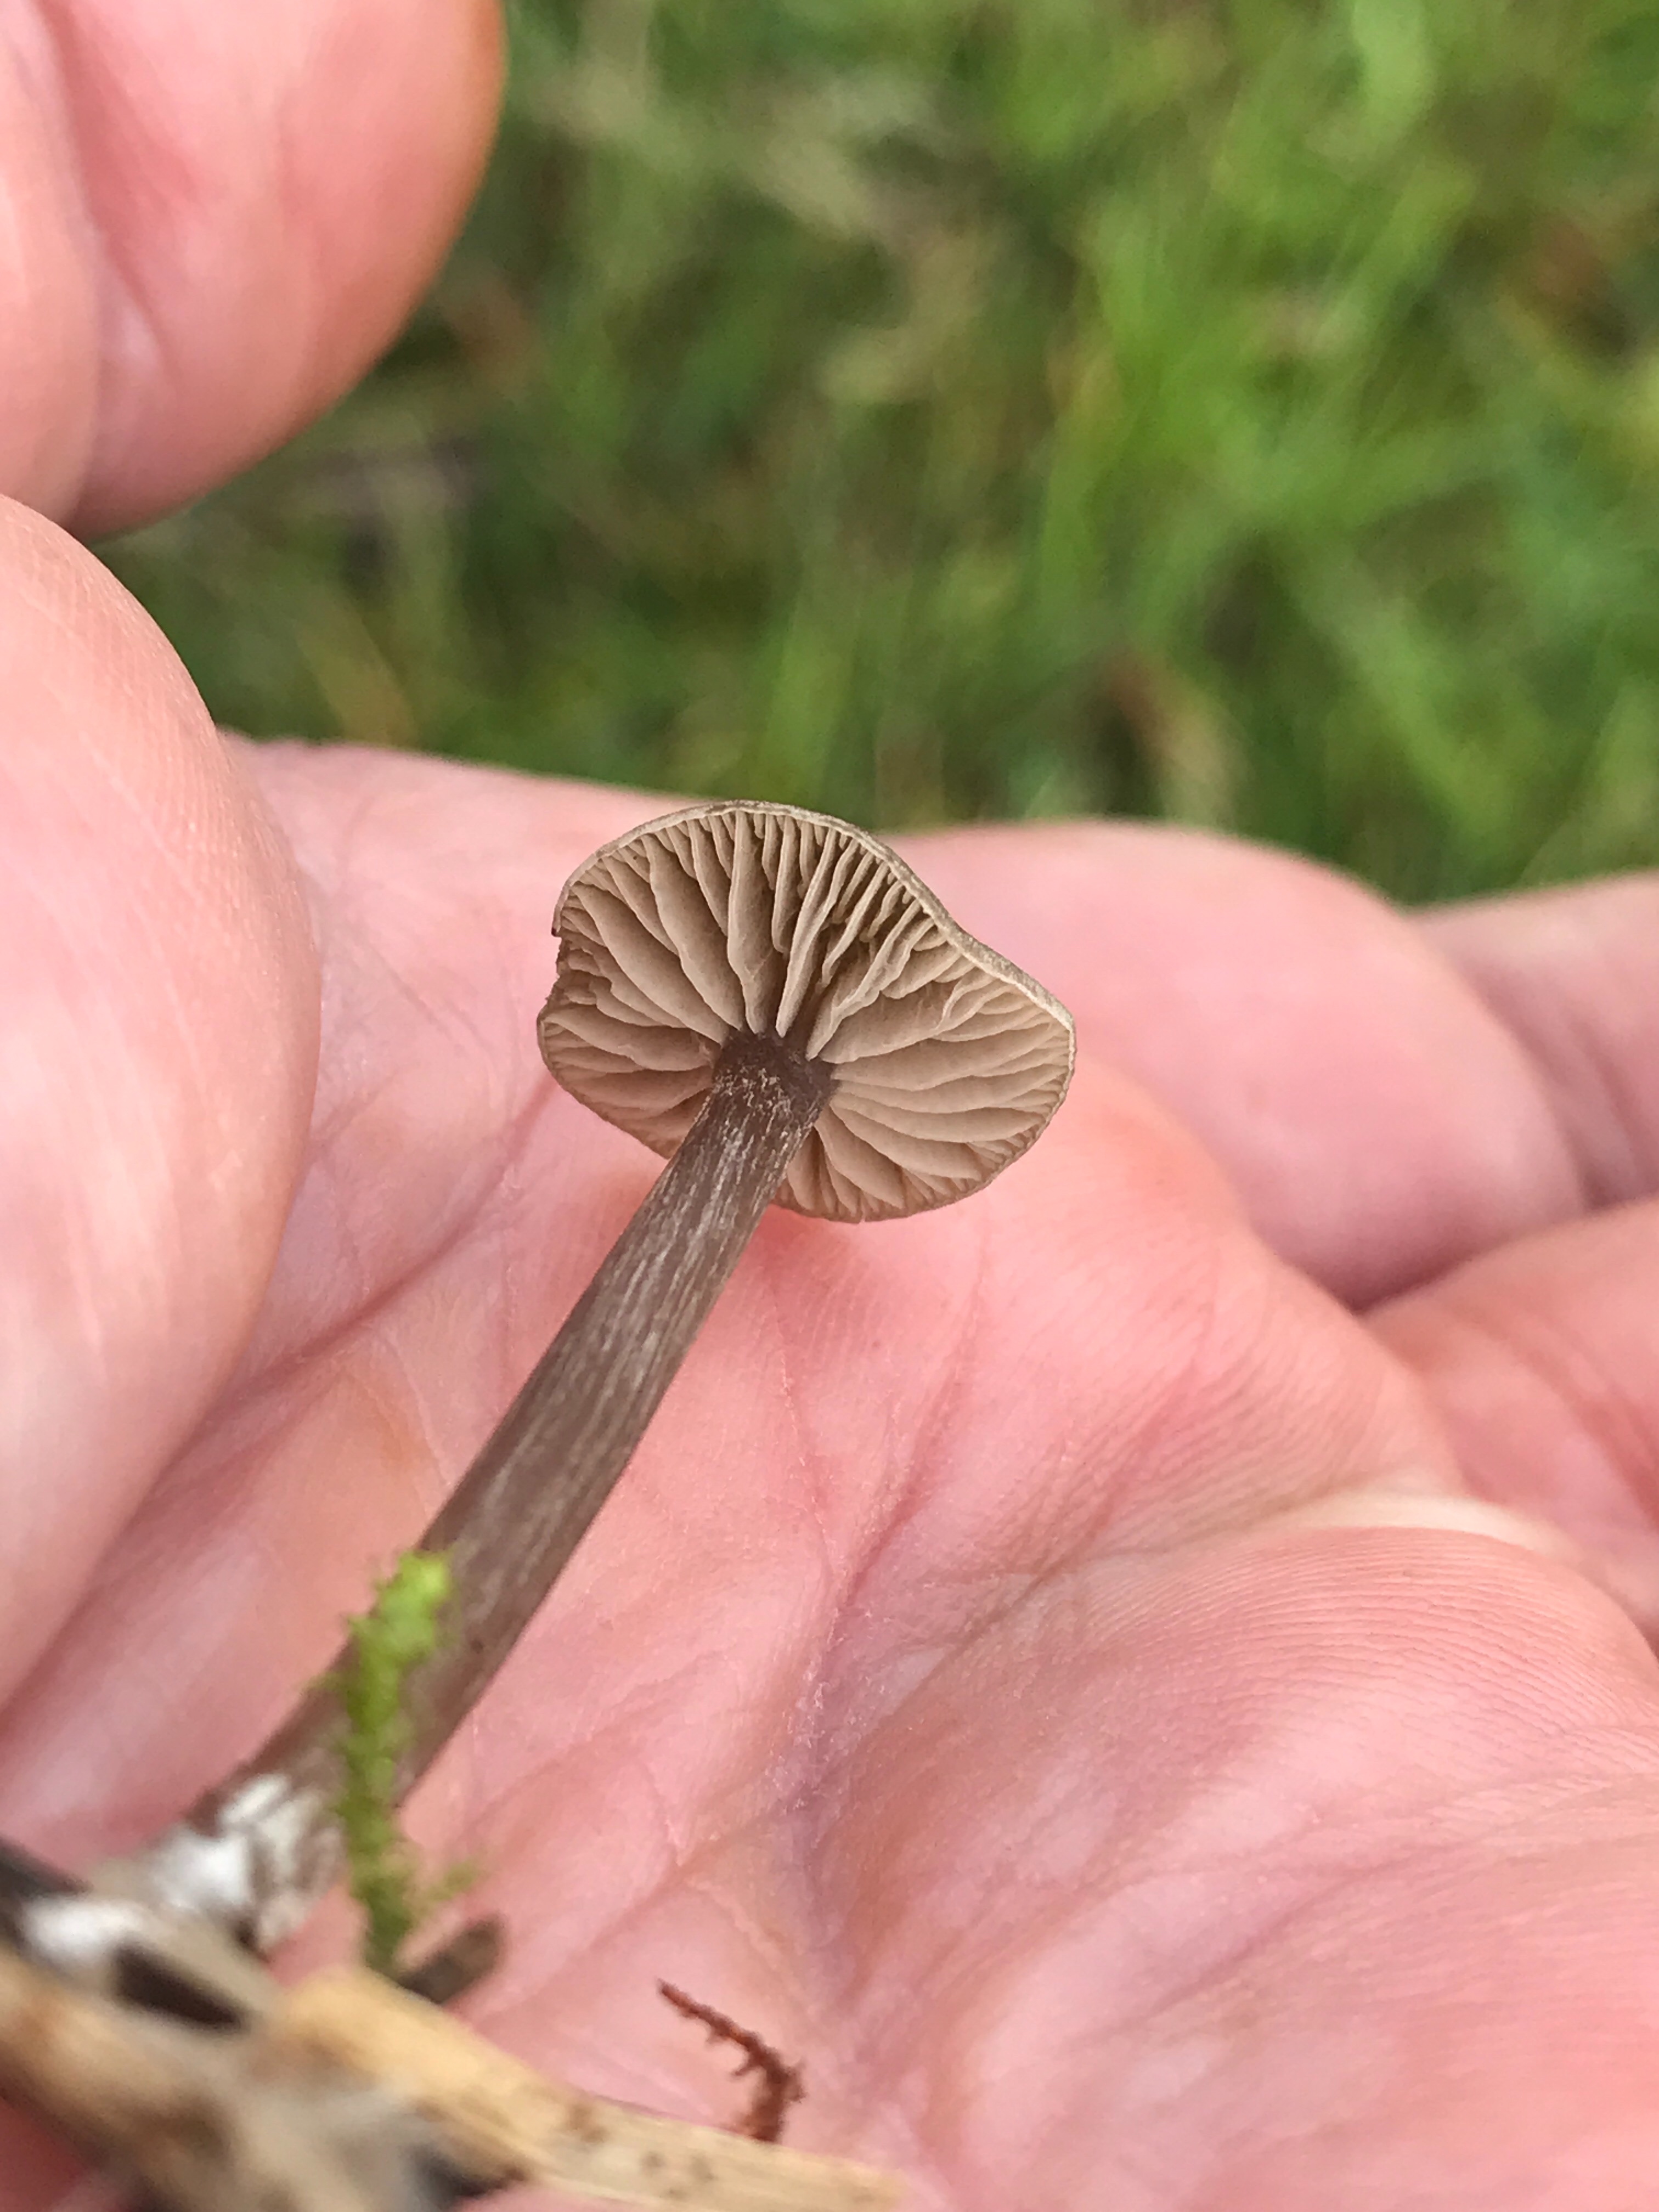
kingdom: Fungi
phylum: Basidiomycota
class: Agaricomycetes
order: Agaricales
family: Entolomataceae
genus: Entoloma
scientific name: Entoloma
